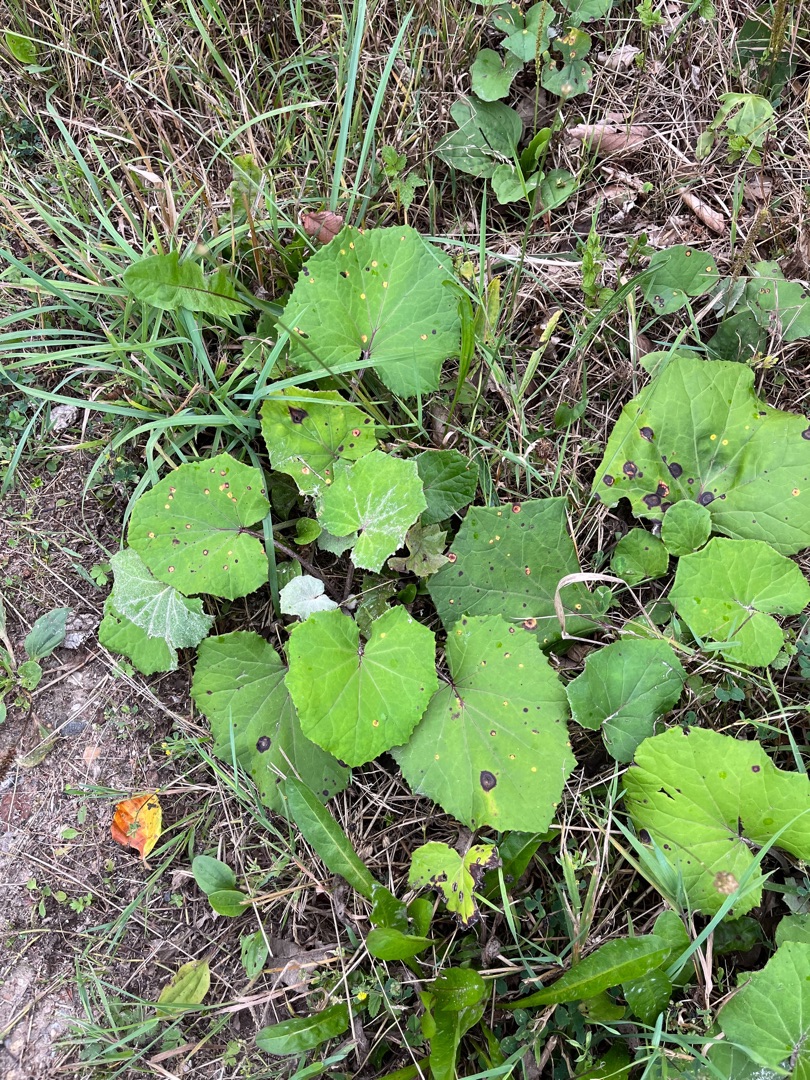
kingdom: Plantae
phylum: Tracheophyta
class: Magnoliopsida
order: Asterales
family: Asteraceae
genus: Tussilago
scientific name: Tussilago farfara
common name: Følfod
